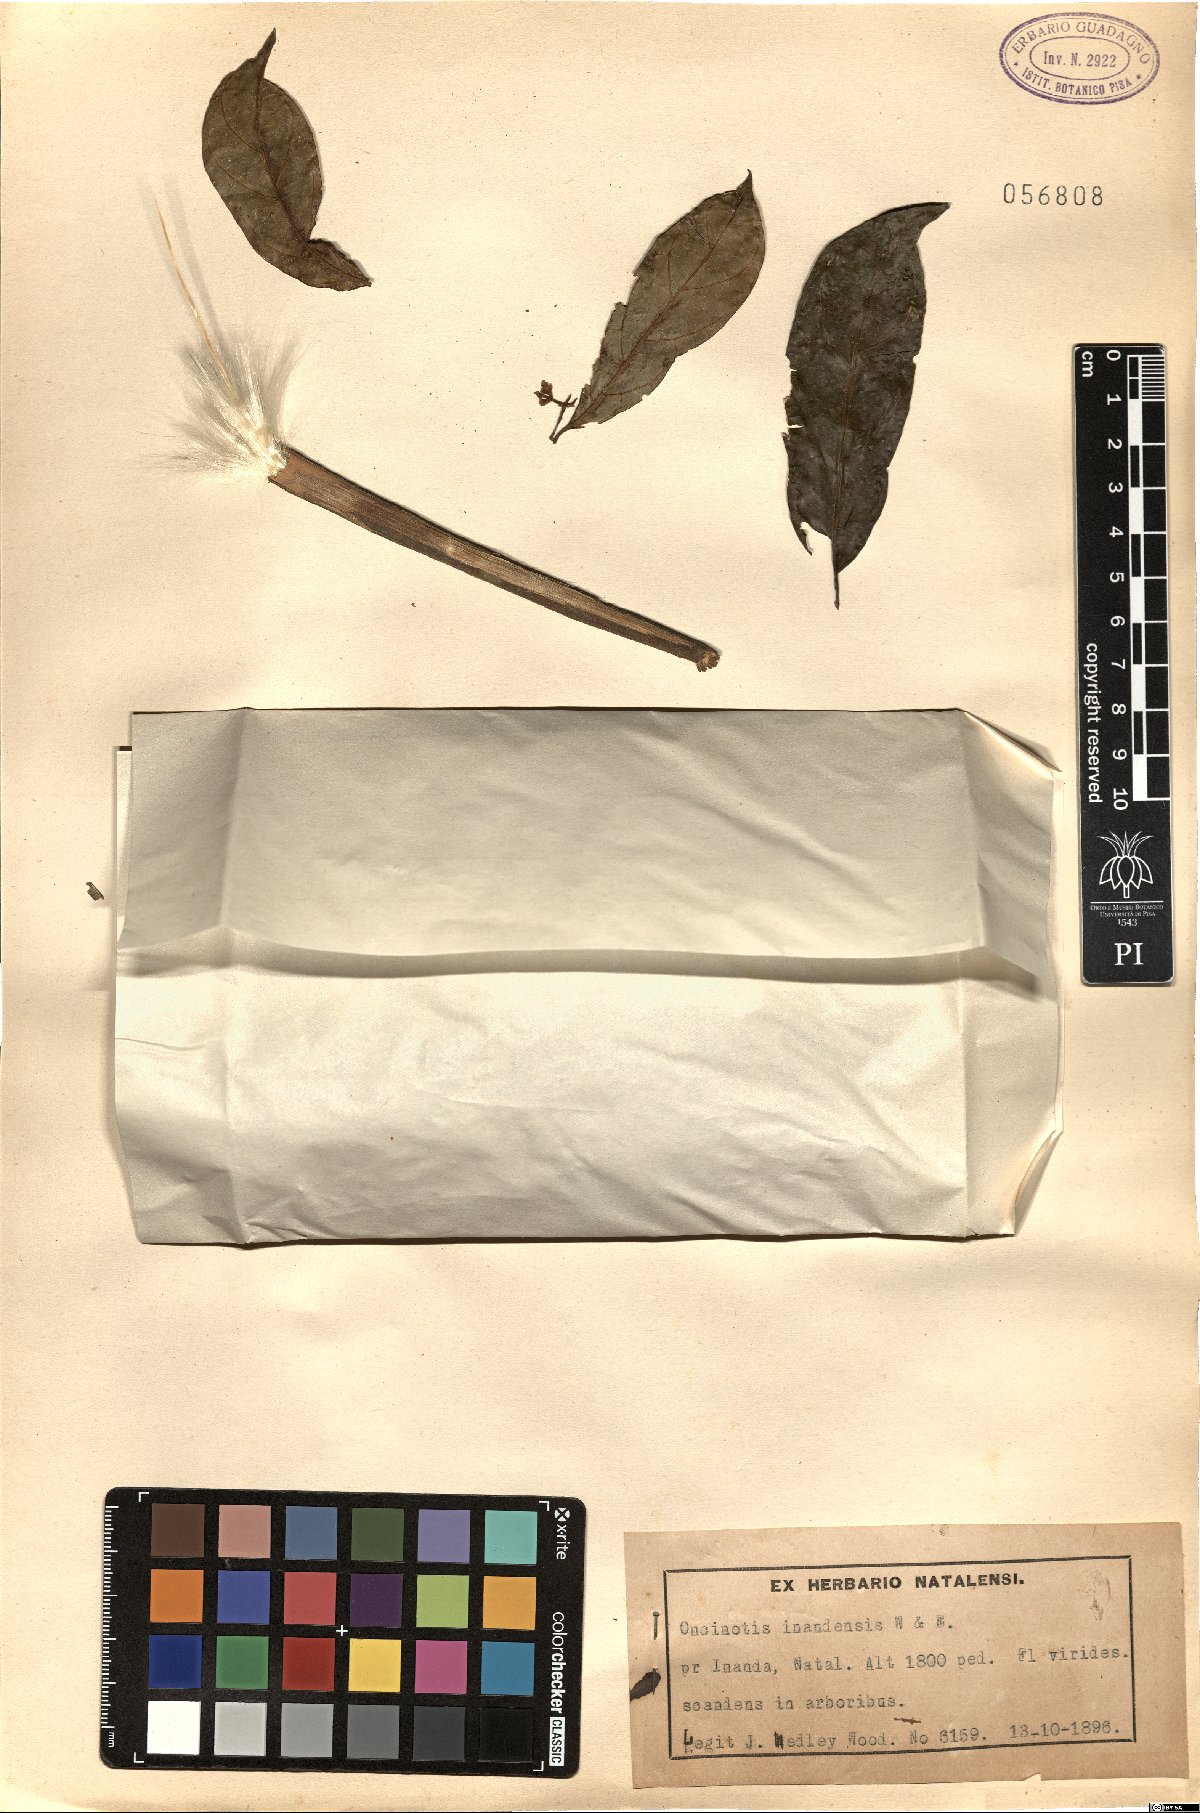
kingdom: Plantae
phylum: Tracheophyta
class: Magnoliopsida
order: Gentianales
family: Apocynaceae
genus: Oncinotis
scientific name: Oncinotis tenuiloba
